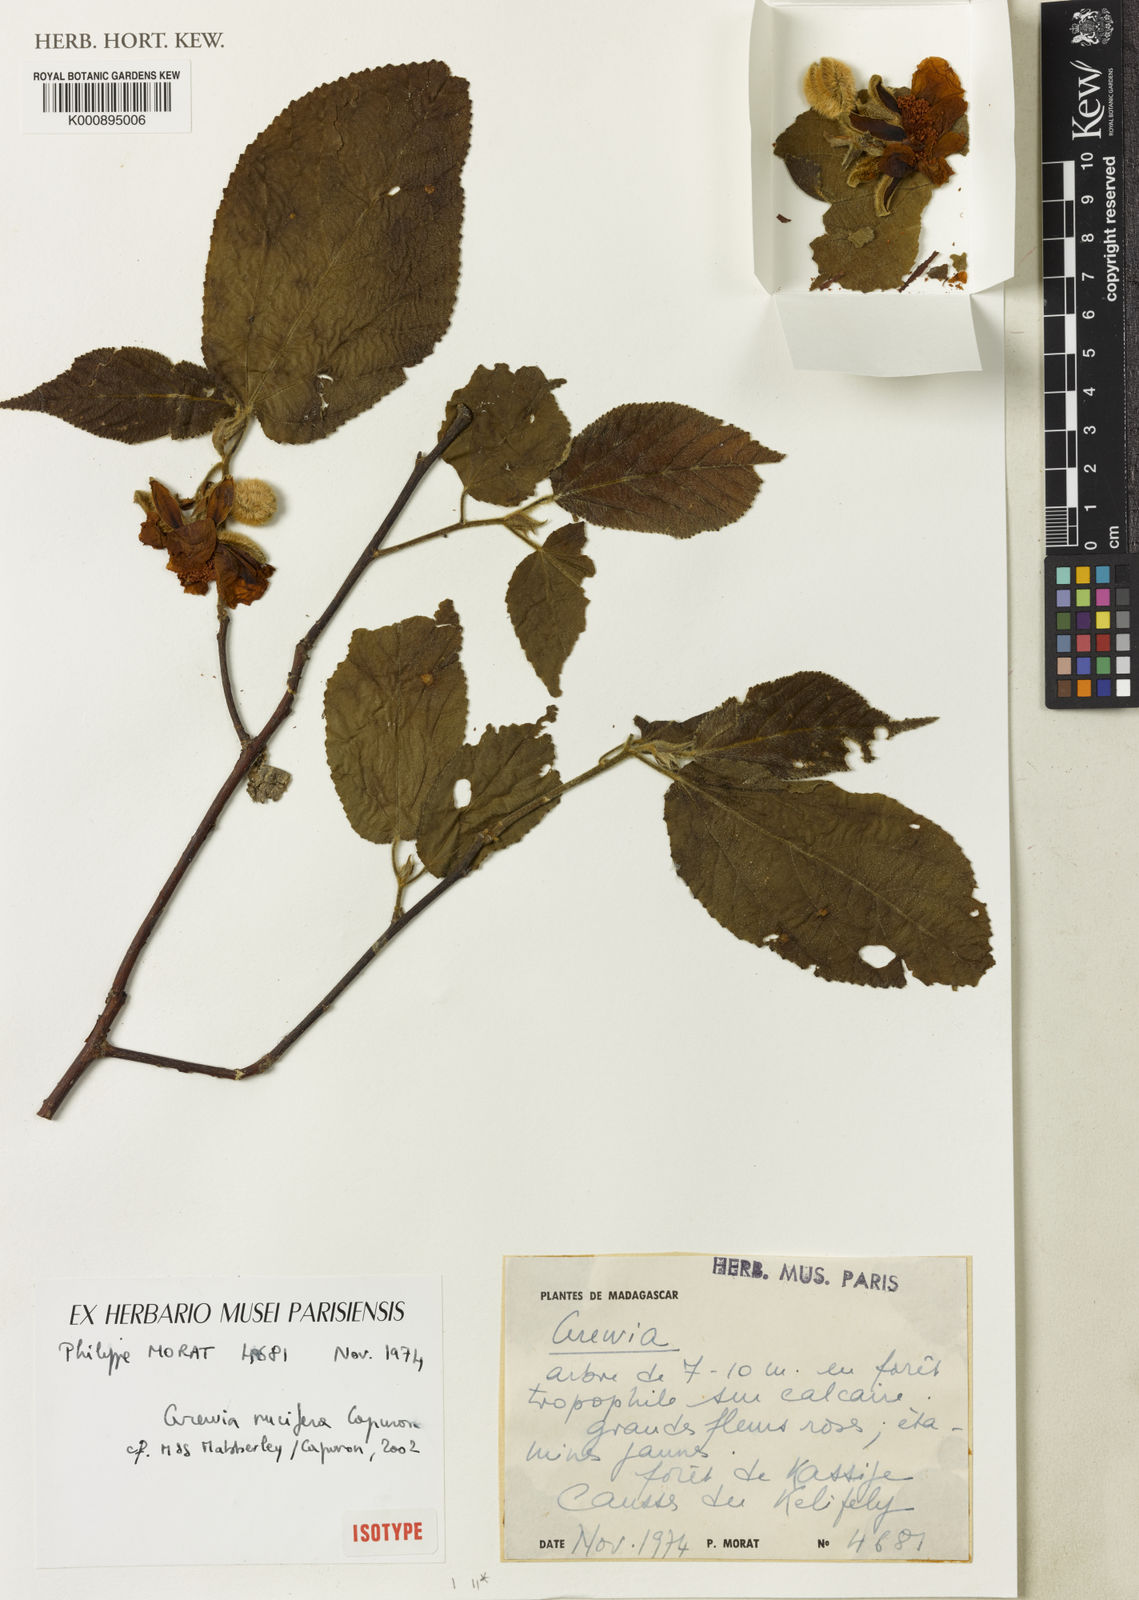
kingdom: Plantae
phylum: Tracheophyta
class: Magnoliopsida
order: Malvales
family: Malvaceae
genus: Grewia
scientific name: Grewia
